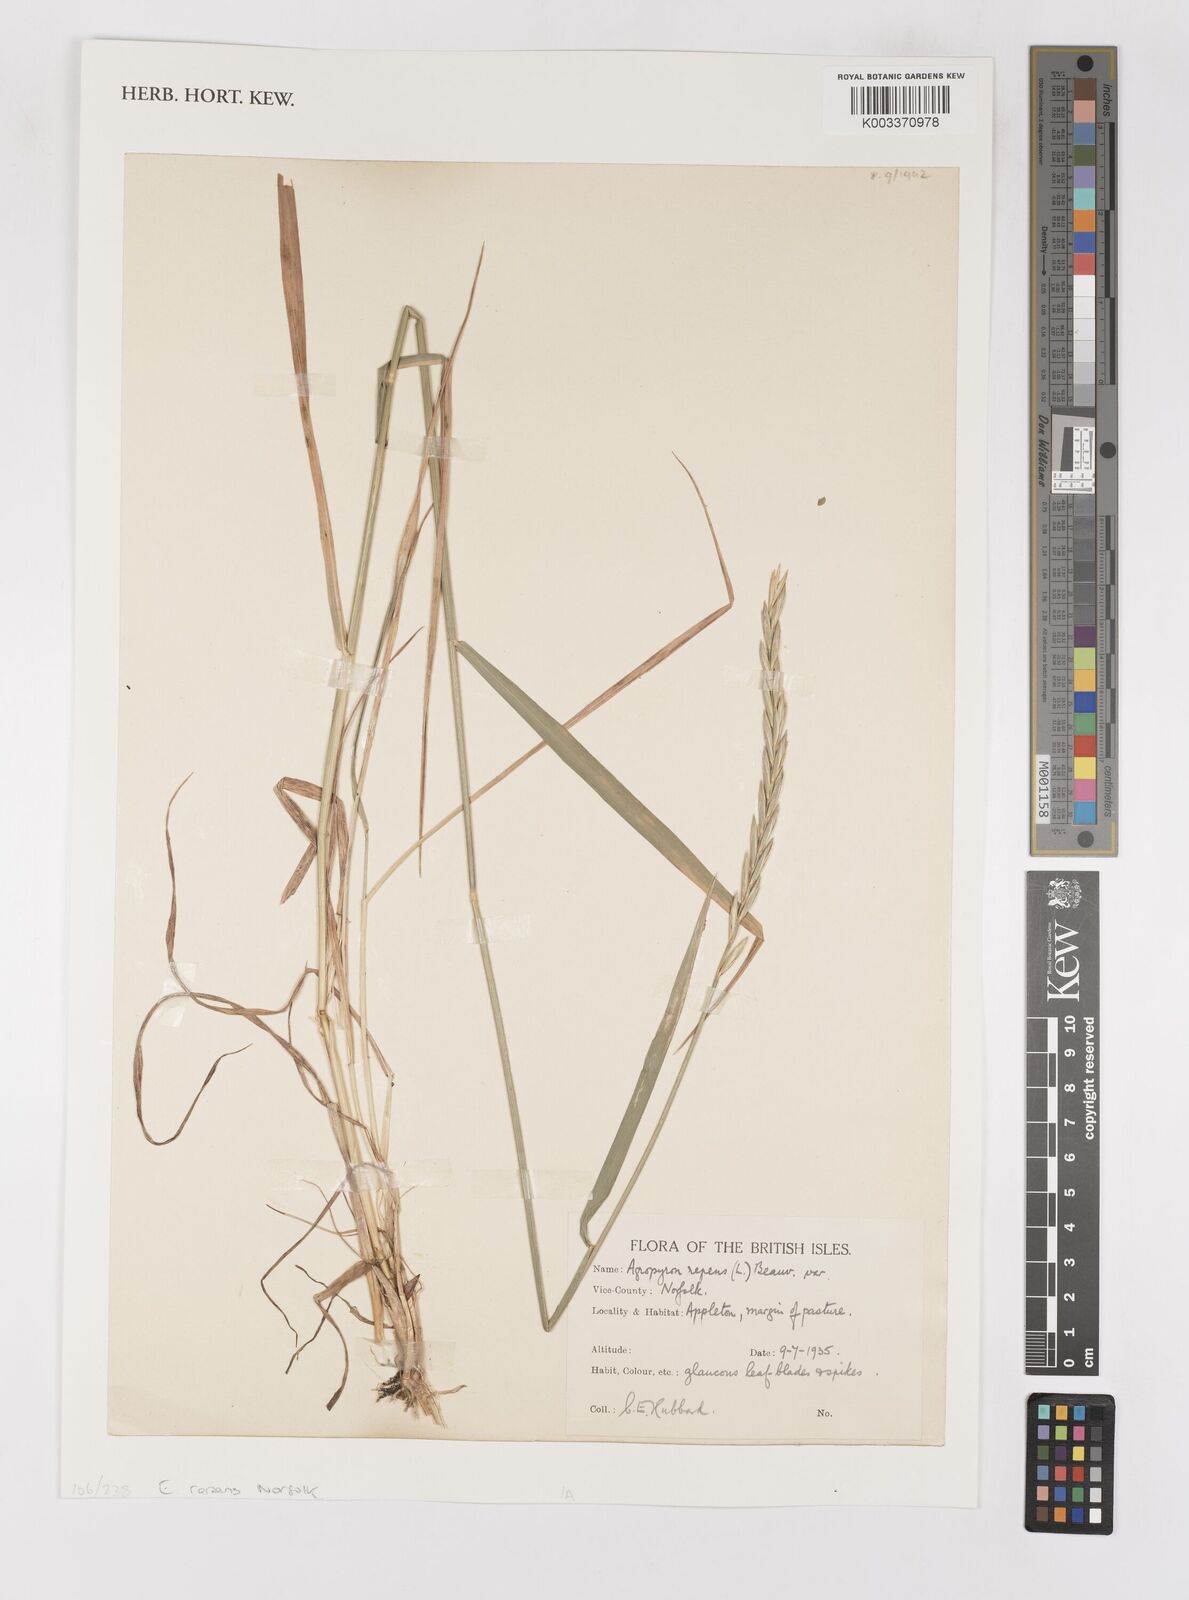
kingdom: Plantae
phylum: Tracheophyta
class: Liliopsida
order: Poales
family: Poaceae
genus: Elymus
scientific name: Elymus repens
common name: Quackgrass
